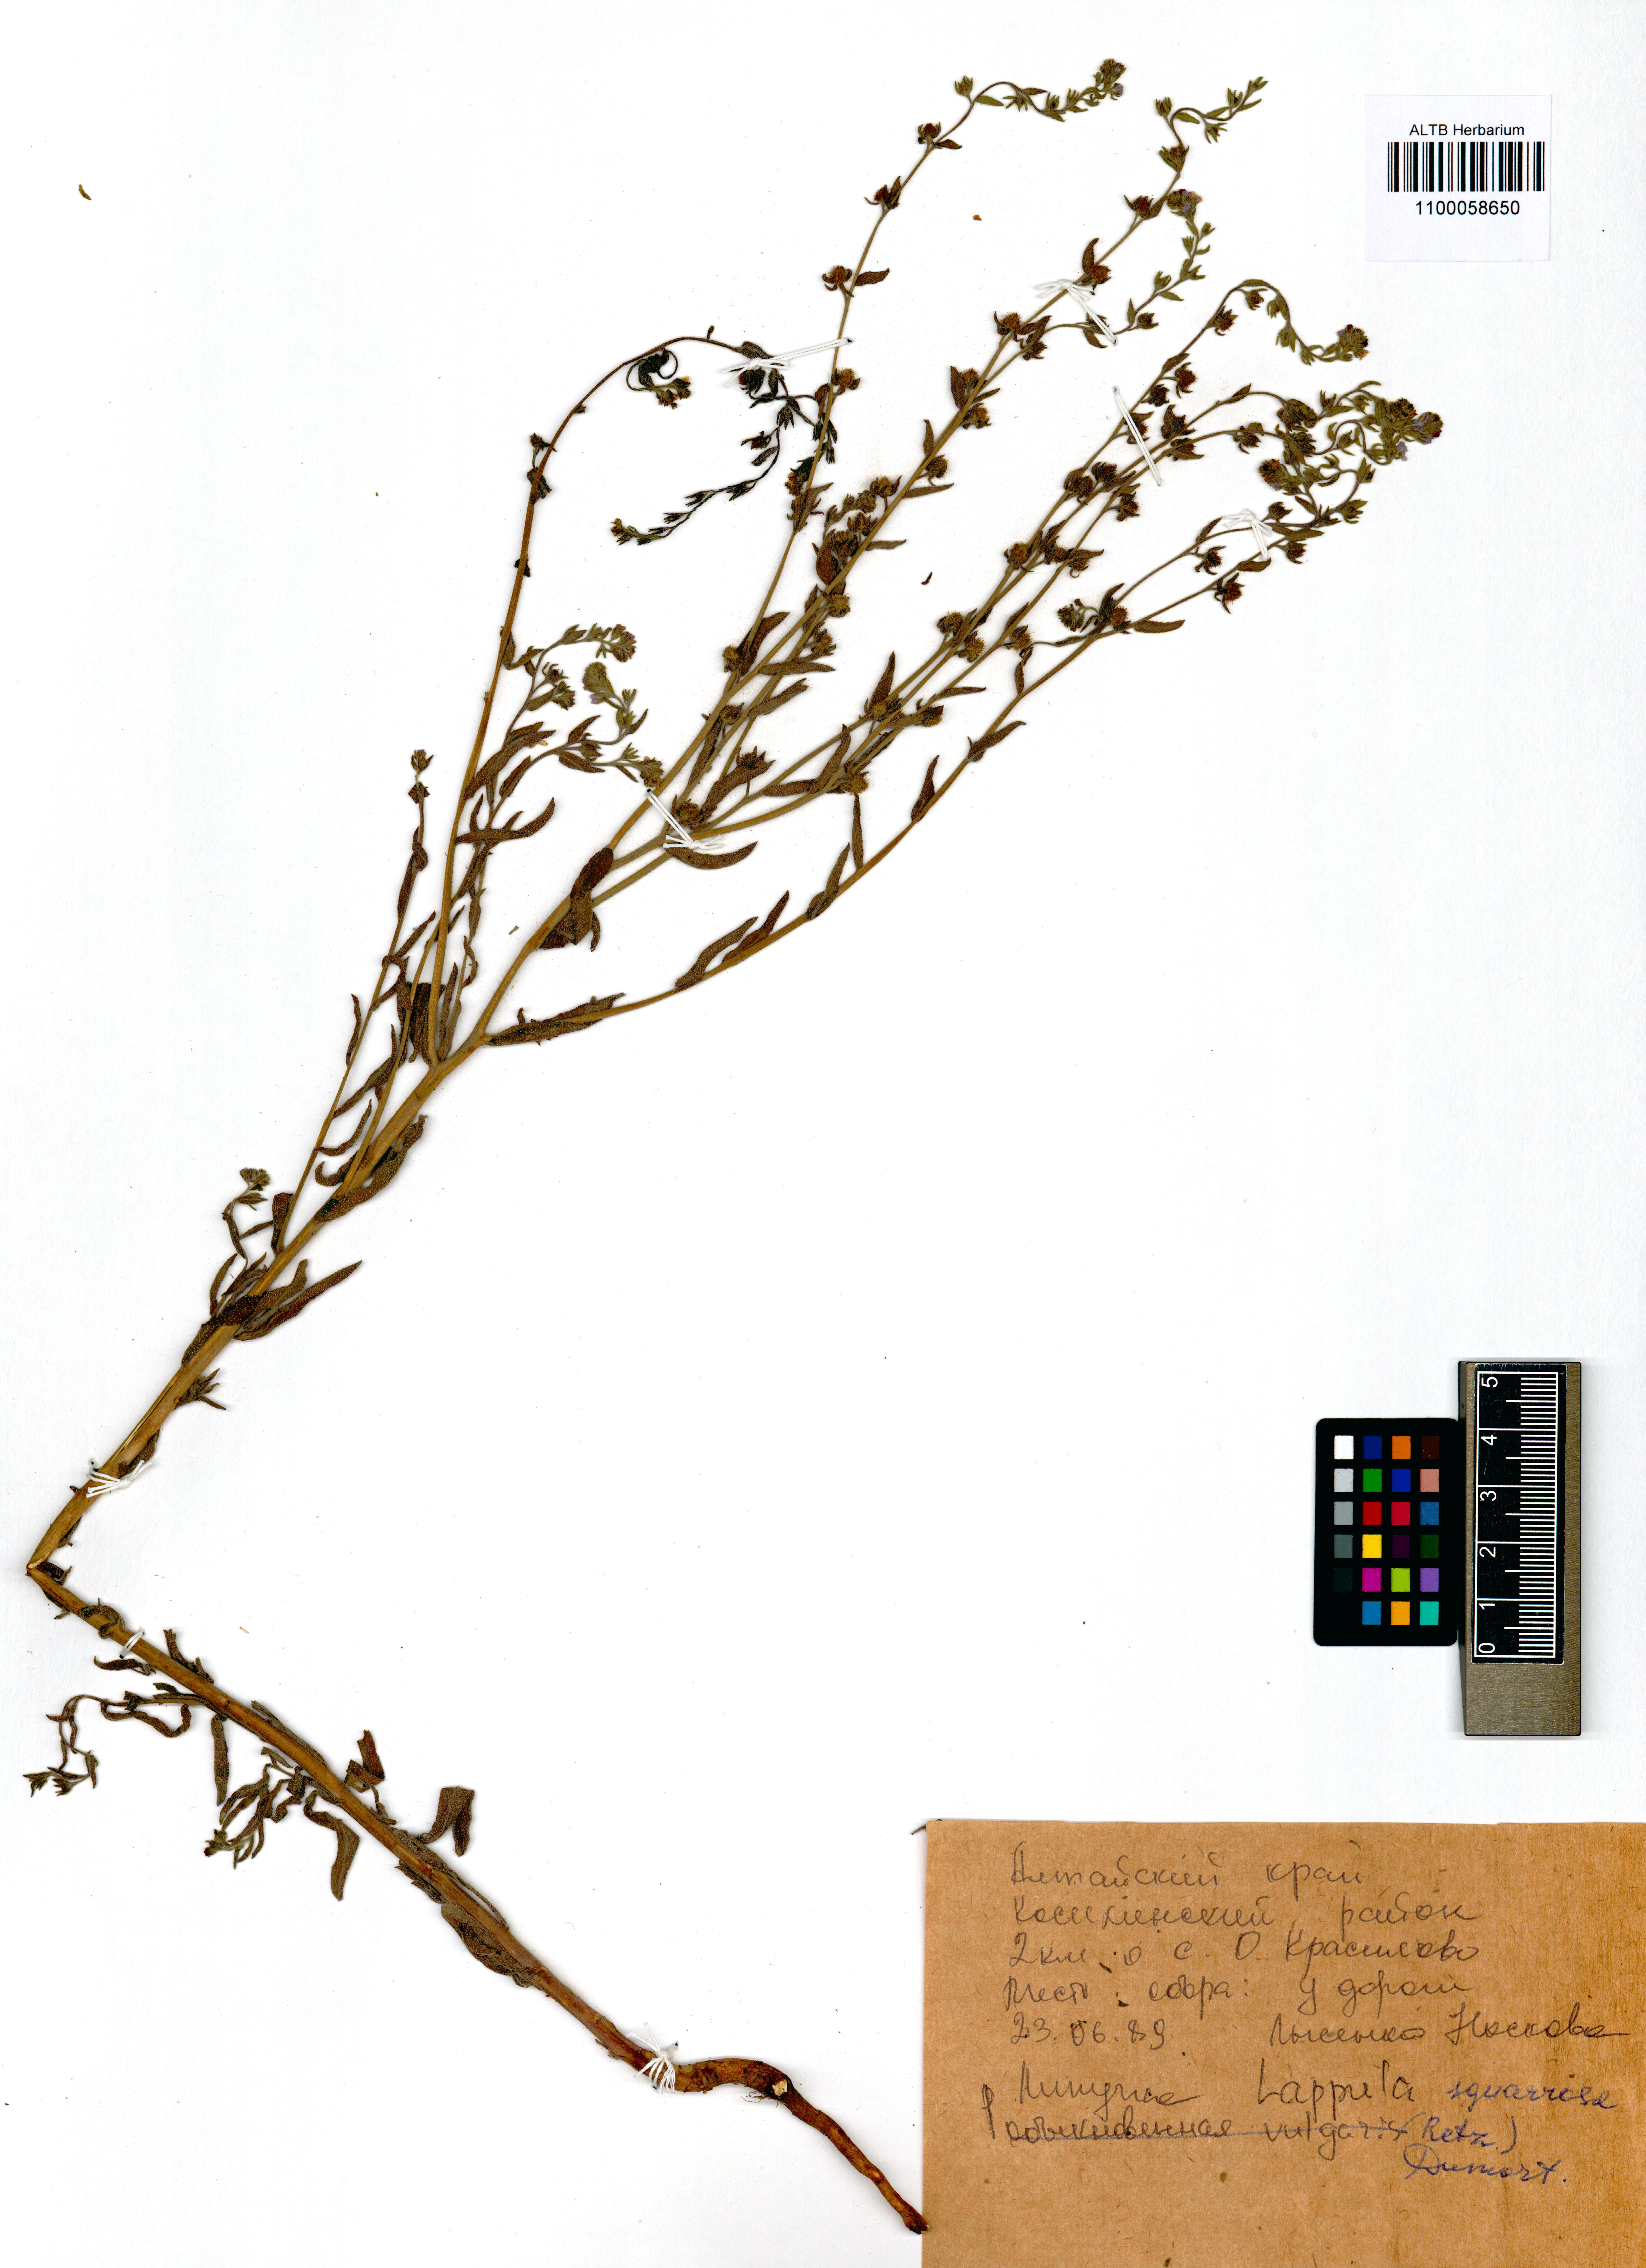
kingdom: Plantae
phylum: Tracheophyta
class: Magnoliopsida
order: Boraginales
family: Boraginaceae
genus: Lappula
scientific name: Lappula squarrosa
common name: European stickseed
